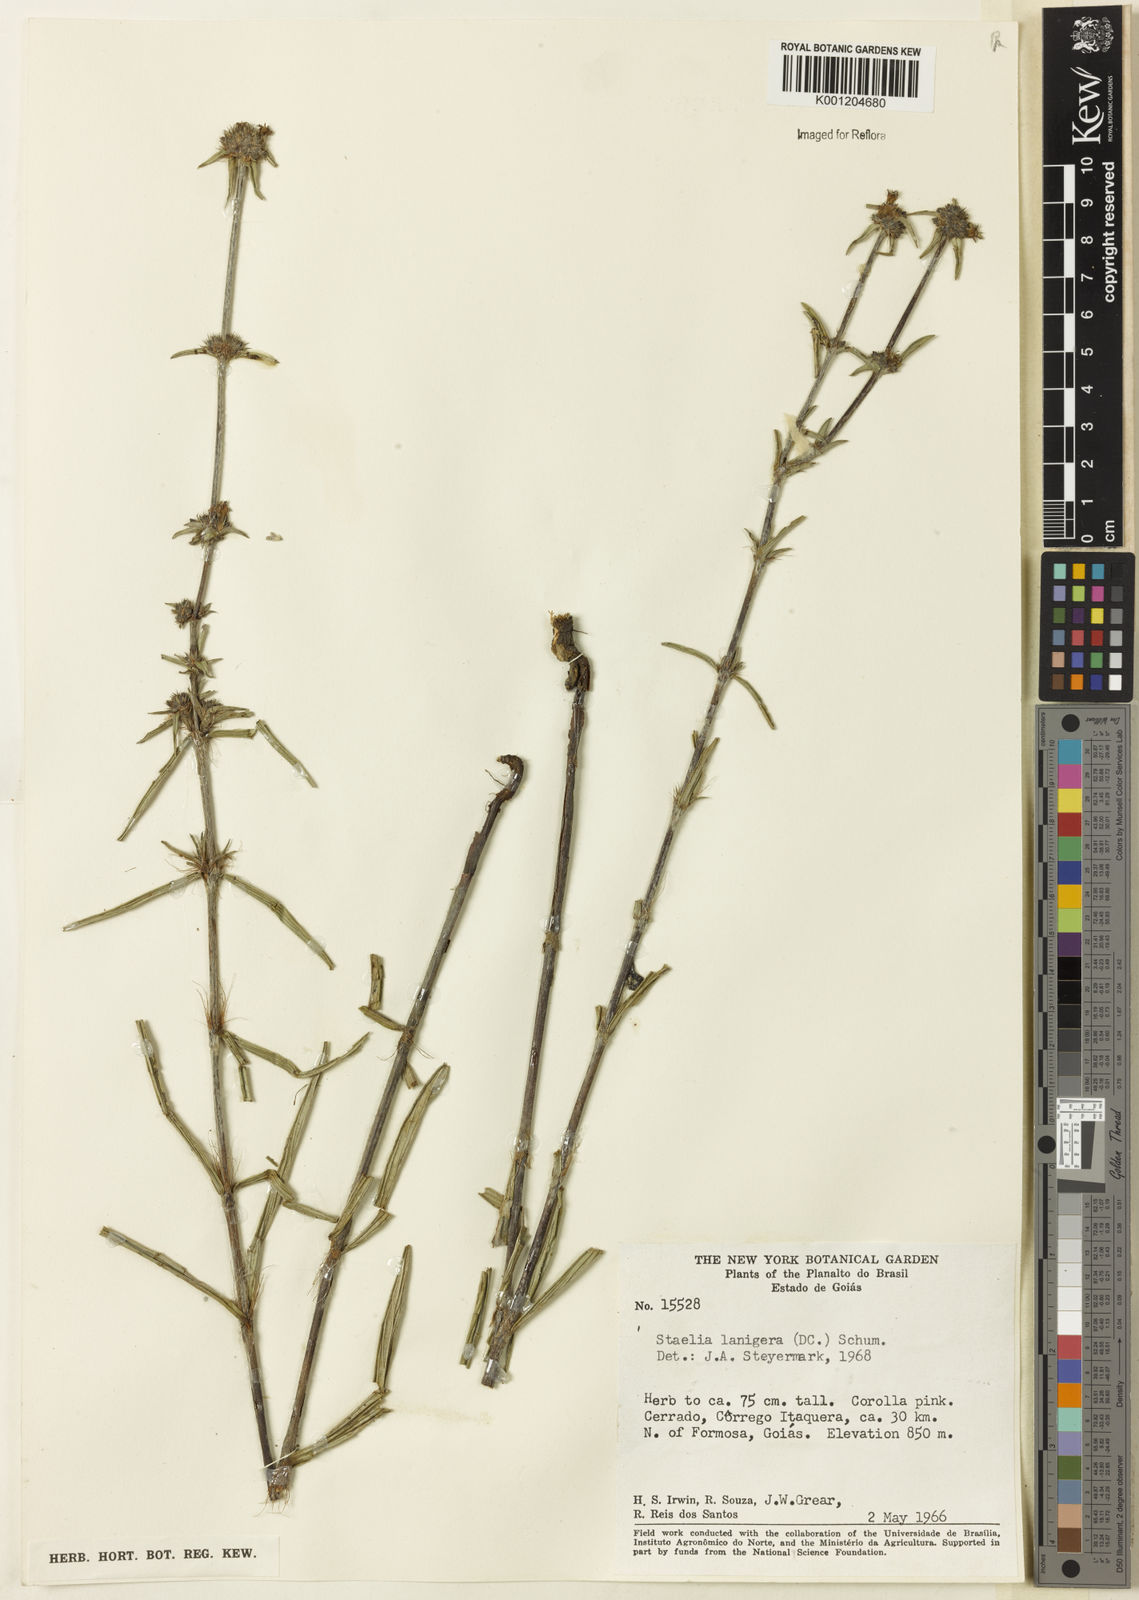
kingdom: Plantae
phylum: Tracheophyta
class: Magnoliopsida
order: Gentianales
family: Rubiaceae
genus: Planaltina
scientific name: Planaltina capitata
